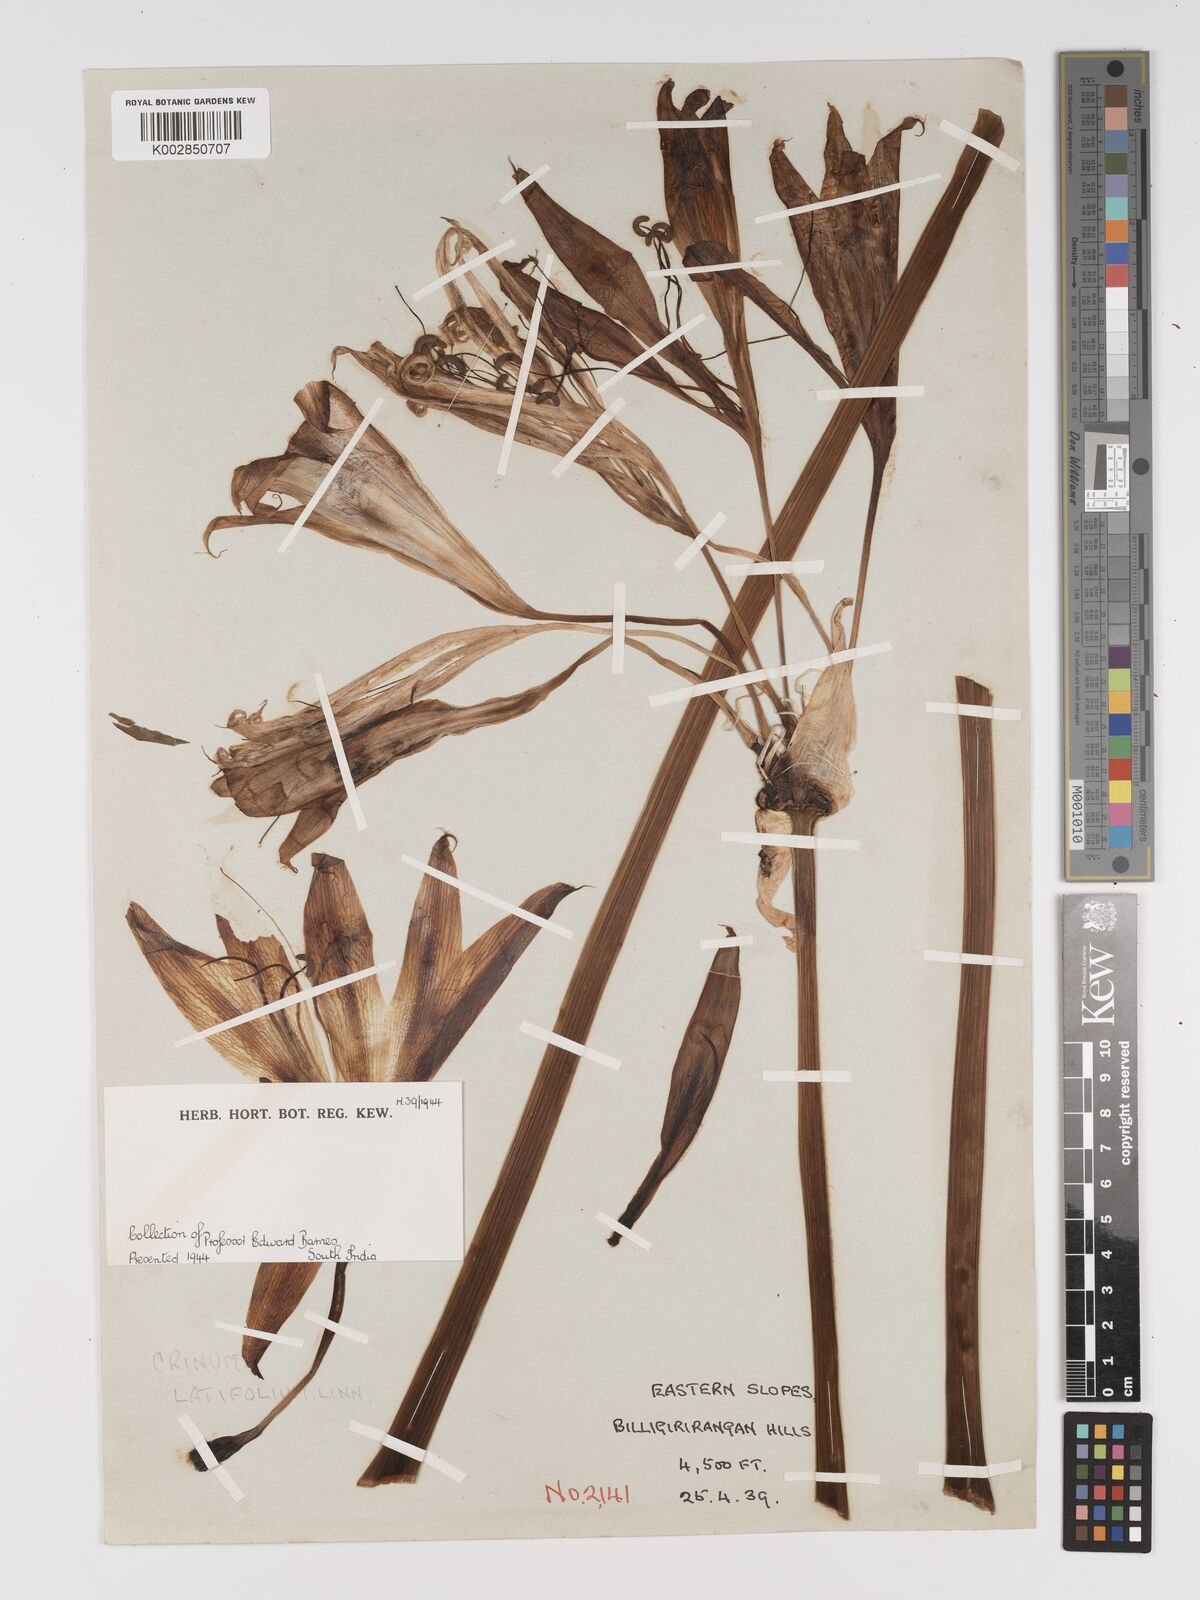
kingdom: Plantae
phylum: Tracheophyta
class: Liliopsida
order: Asparagales
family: Amaryllidaceae
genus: Crinum
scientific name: Crinum latifolium
